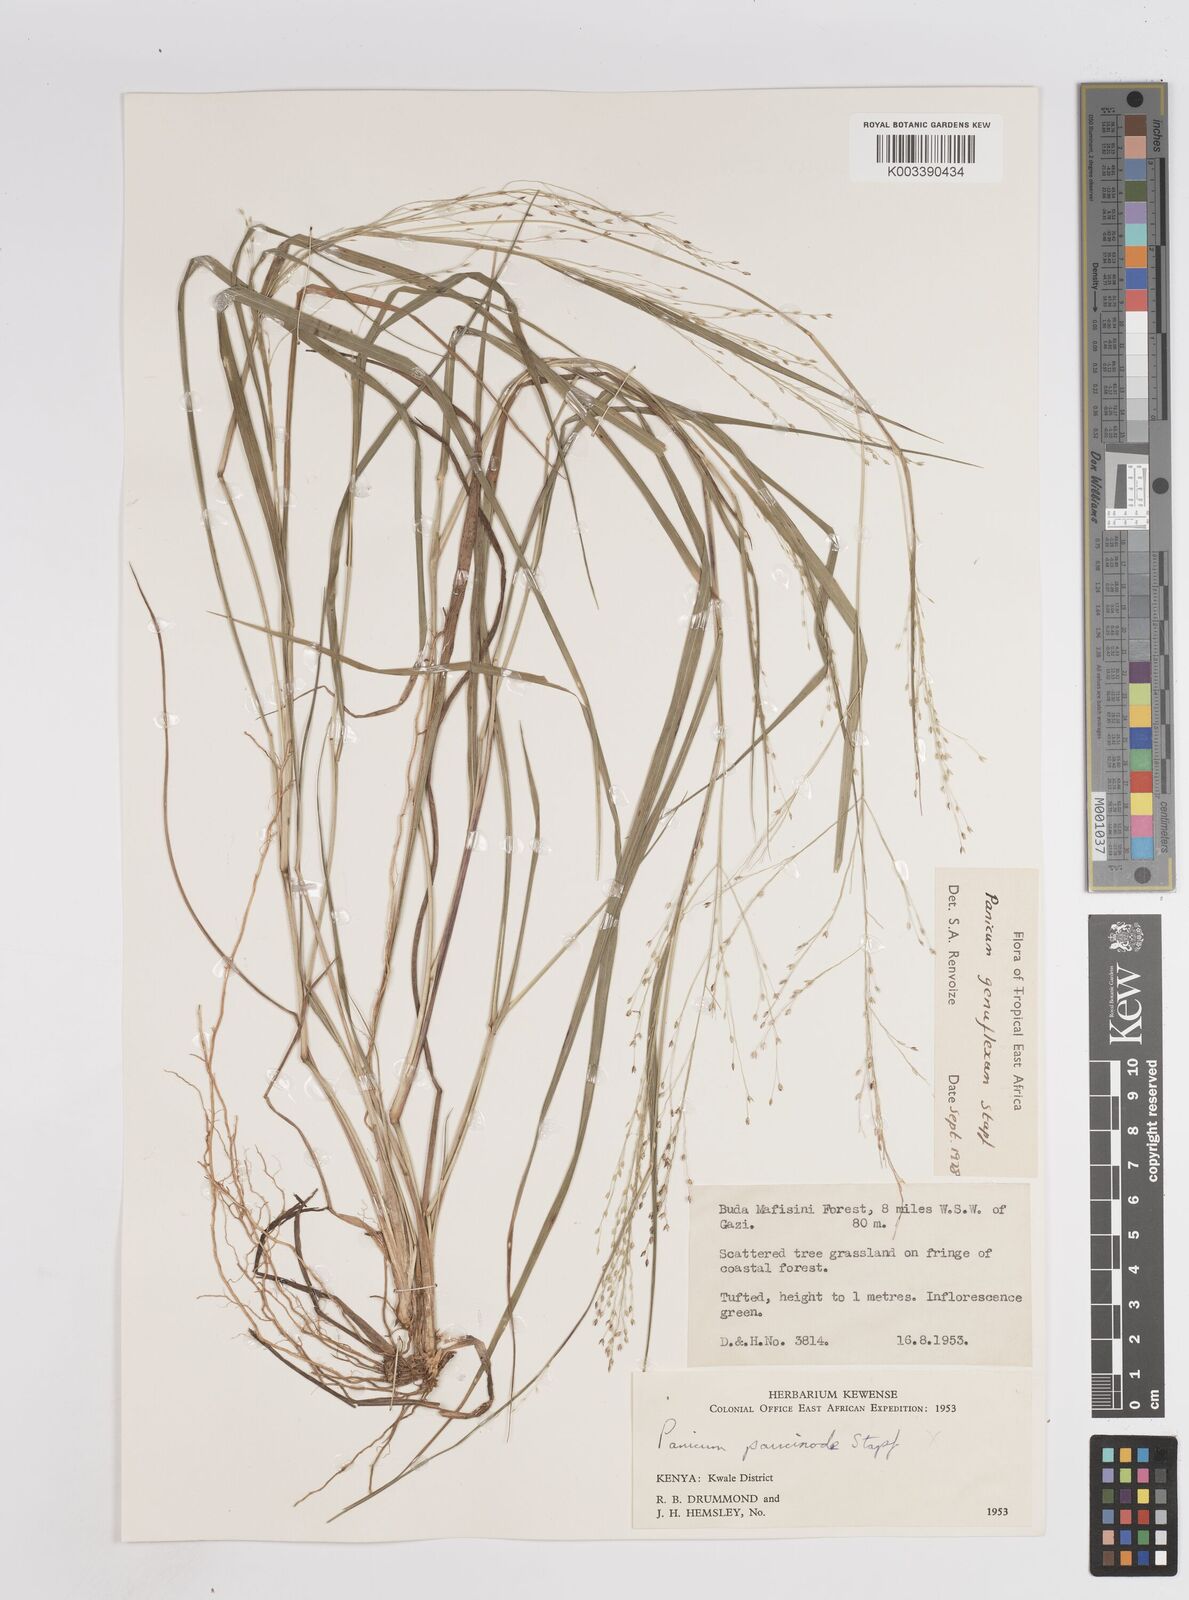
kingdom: Plantae
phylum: Tracheophyta
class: Liliopsida
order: Poales
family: Poaceae
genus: Panicum
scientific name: Panicum genuflexum
